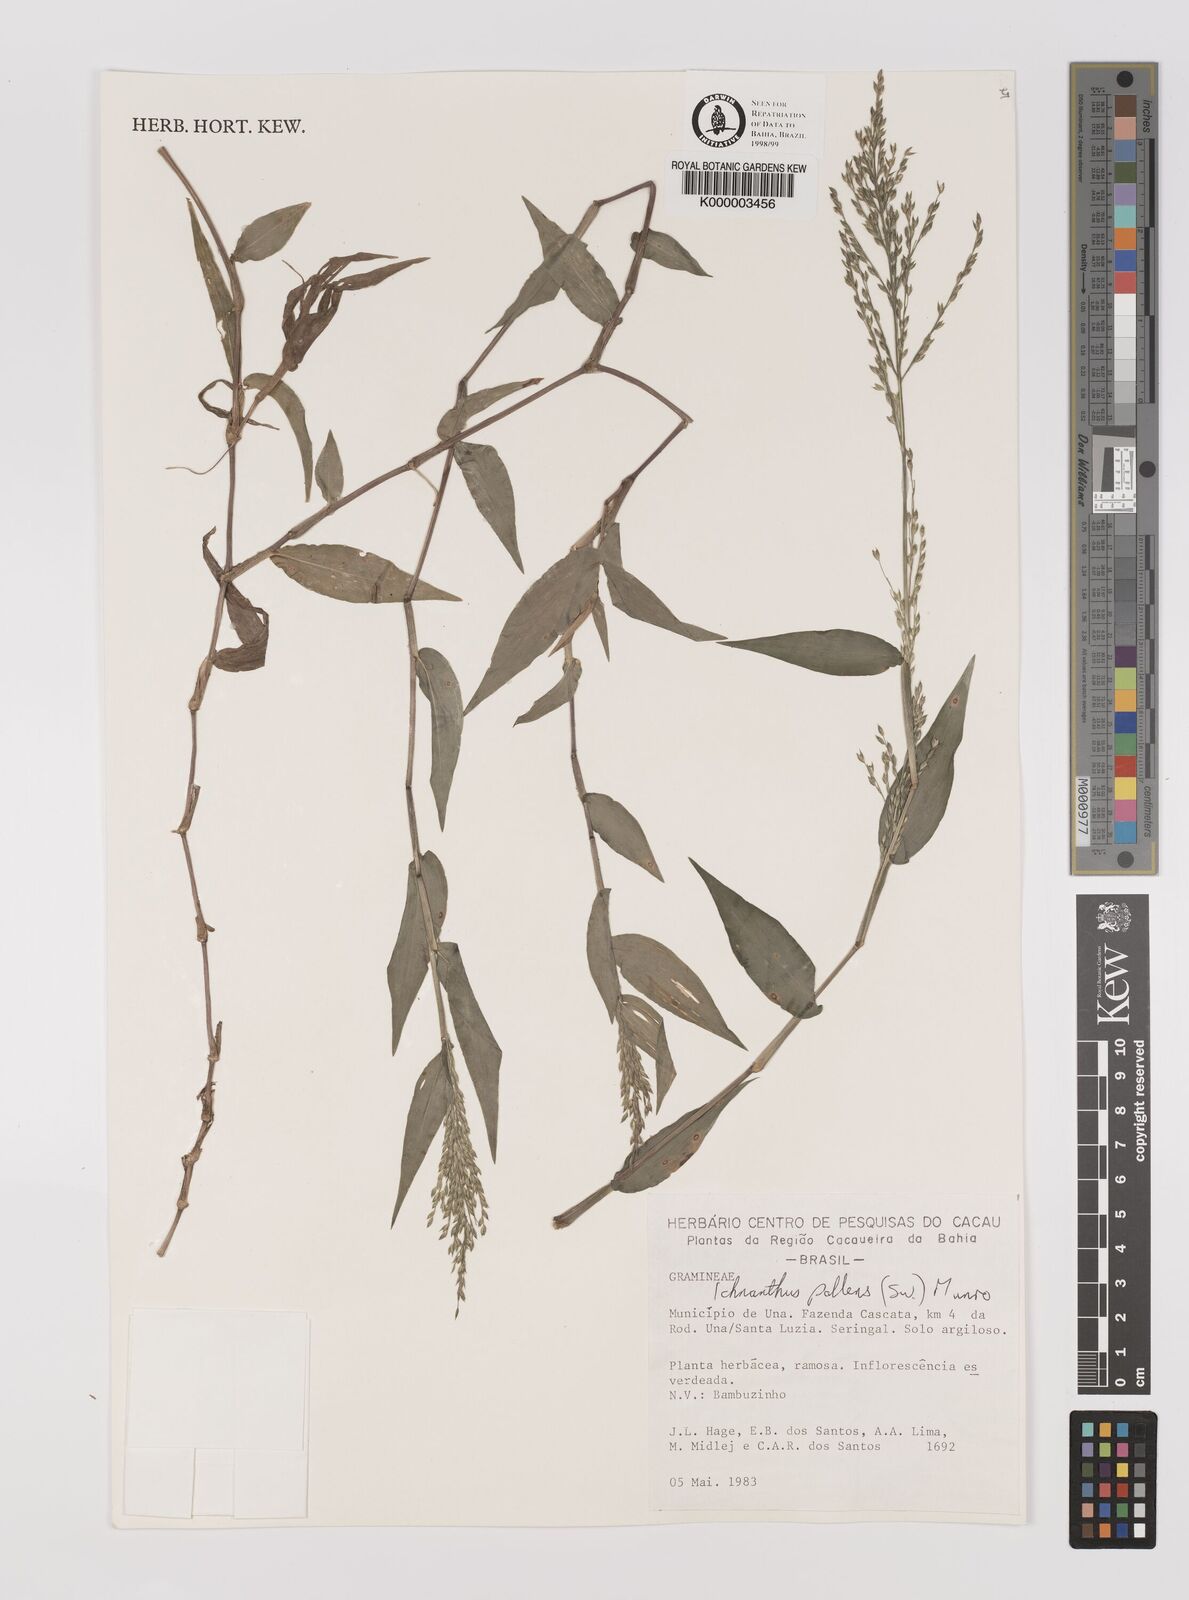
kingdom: Plantae
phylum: Tracheophyta
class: Liliopsida
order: Poales
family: Poaceae
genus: Ichnanthus
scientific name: Ichnanthus
